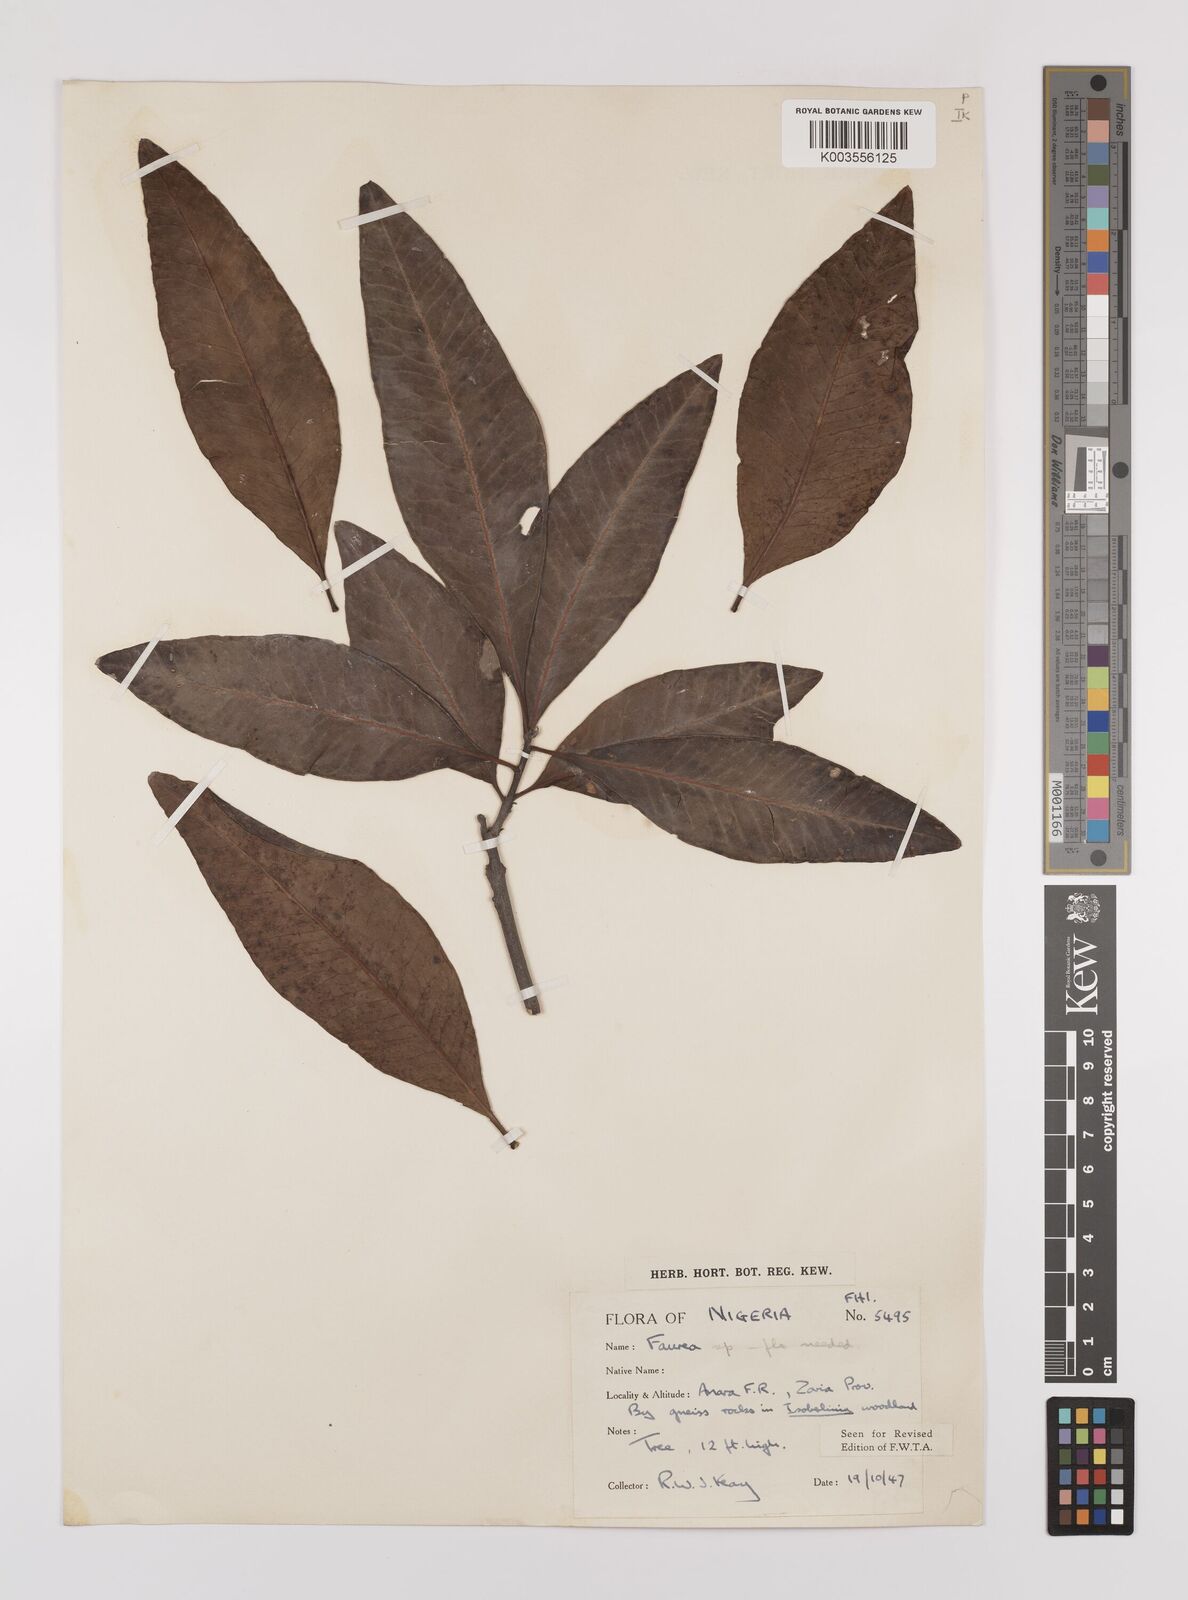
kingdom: Plantae
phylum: Tracheophyta
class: Magnoliopsida
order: Proteales
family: Proteaceae
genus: Faurea
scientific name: Faurea
